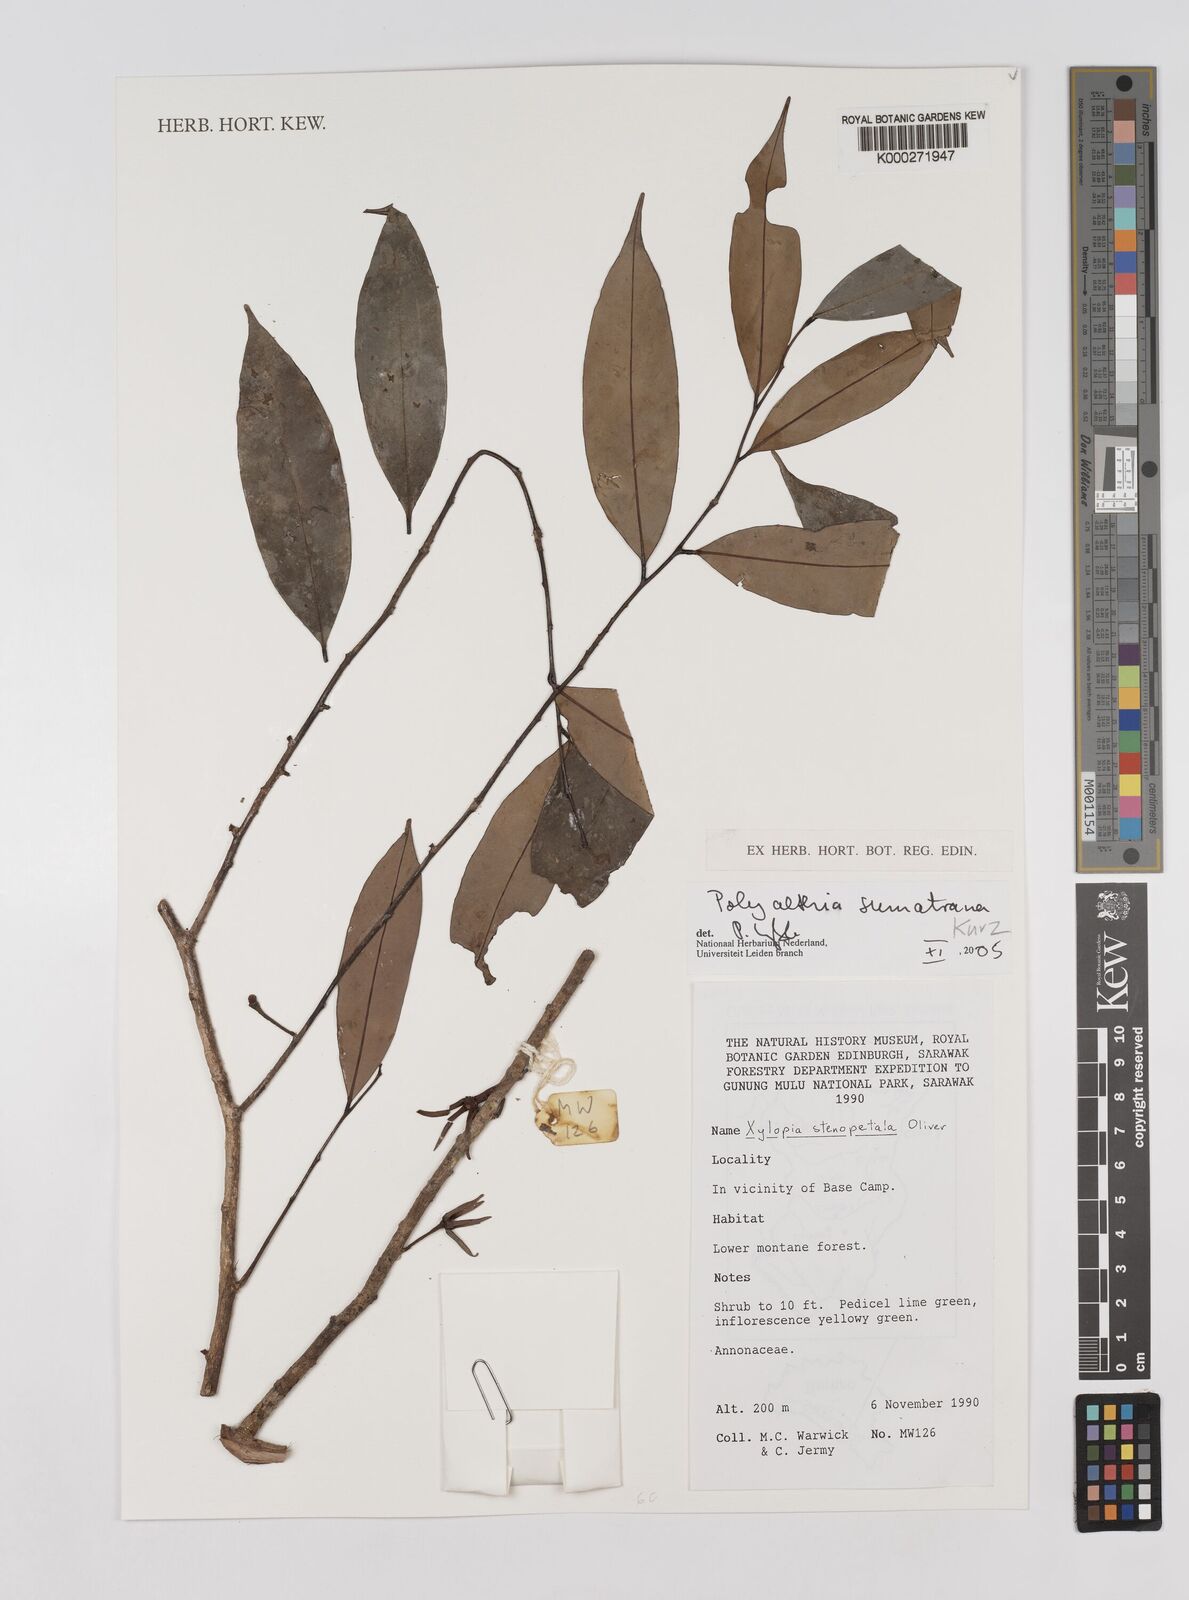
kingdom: Plantae
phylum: Tracheophyta
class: Magnoliopsida
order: Magnoliales
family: Annonaceae
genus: Maasia
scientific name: Maasia sumatrana
